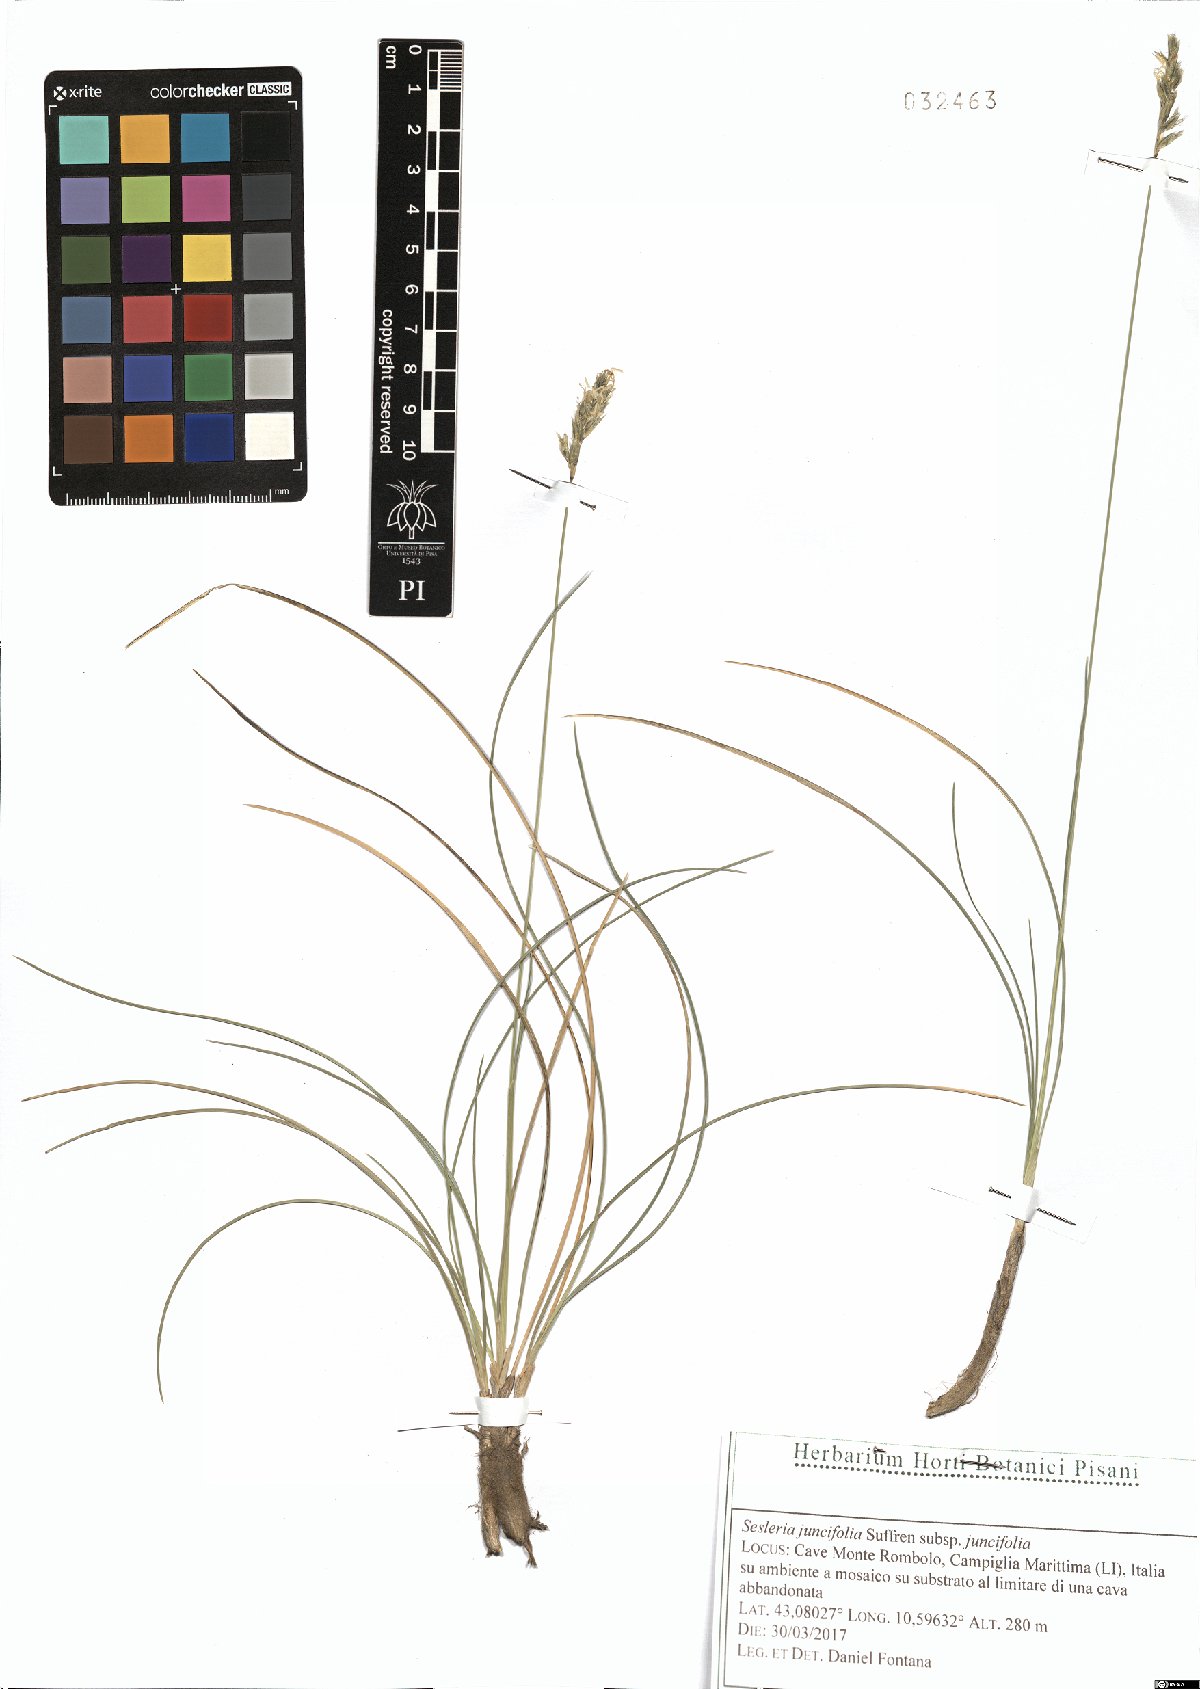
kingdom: Plantae
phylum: Tracheophyta
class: Liliopsida
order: Poales
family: Poaceae
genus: Sesleria
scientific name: Sesleria juncifolia
